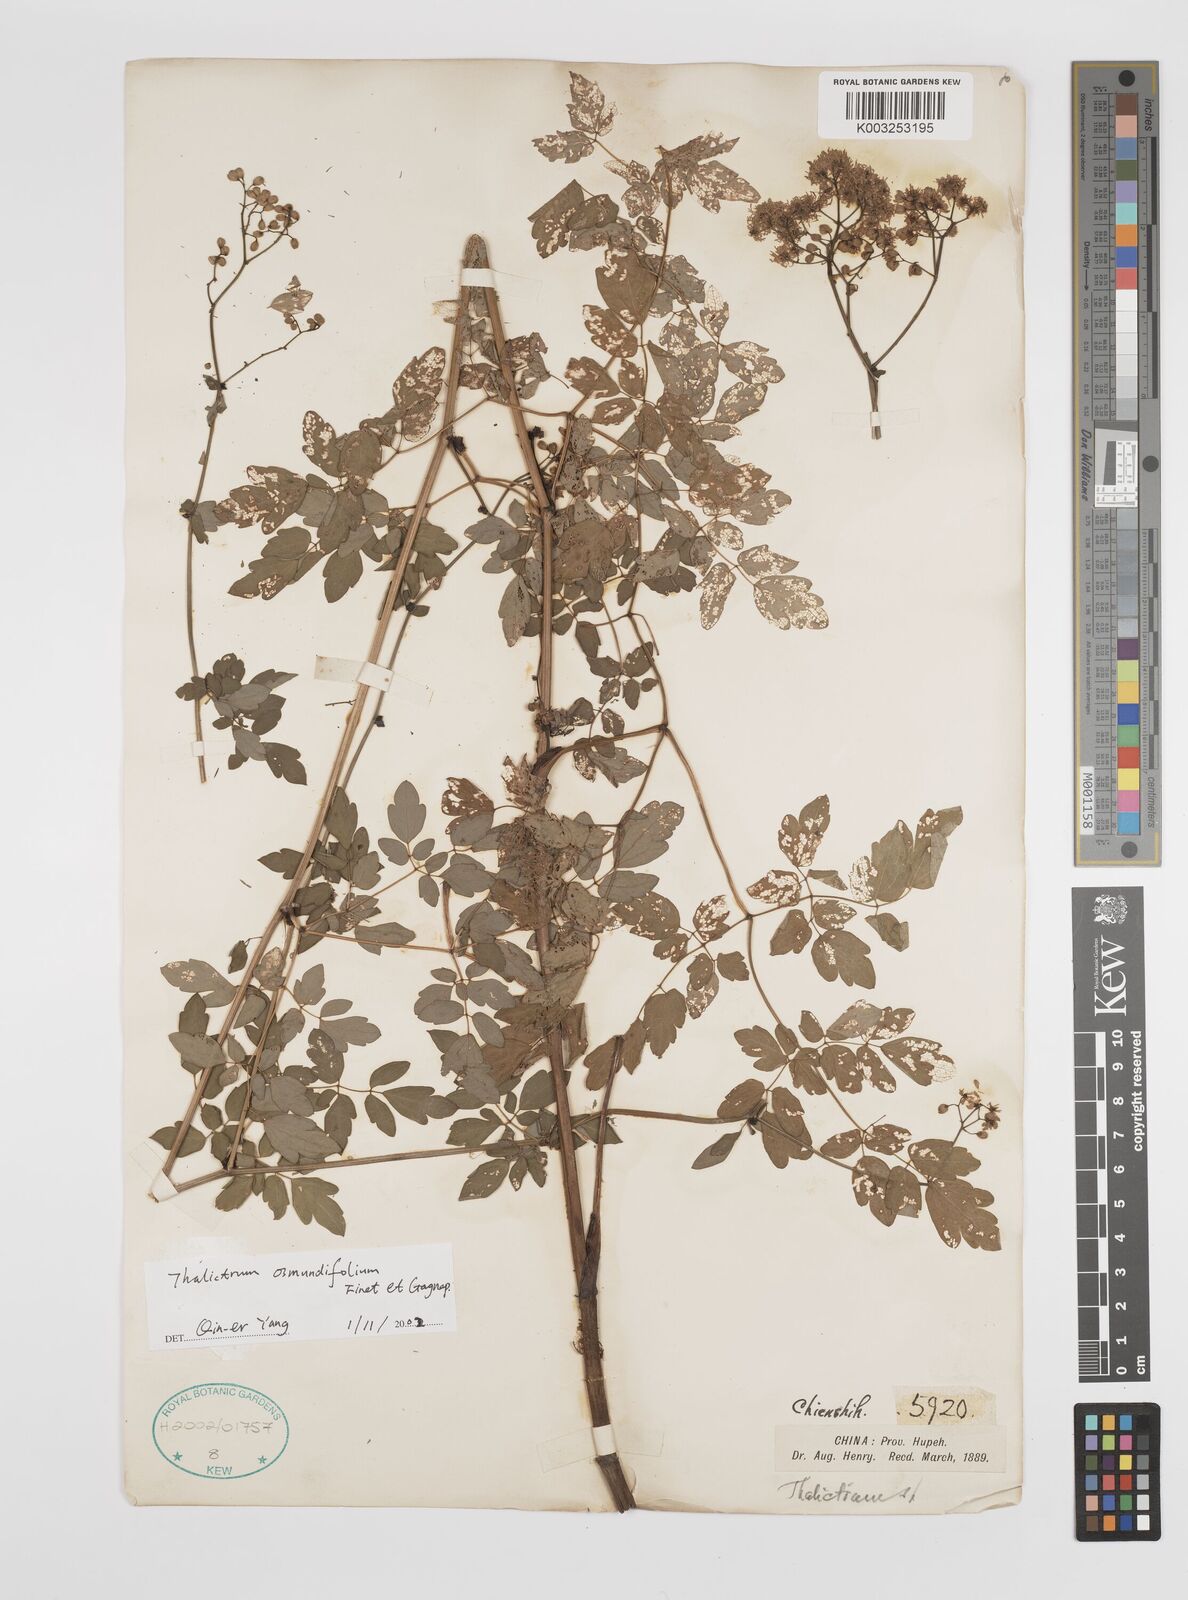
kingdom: Plantae
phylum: Tracheophyta
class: Magnoliopsida
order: Ranunculales
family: Ranunculaceae
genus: Thalictrum
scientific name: Thalictrum javanicum
